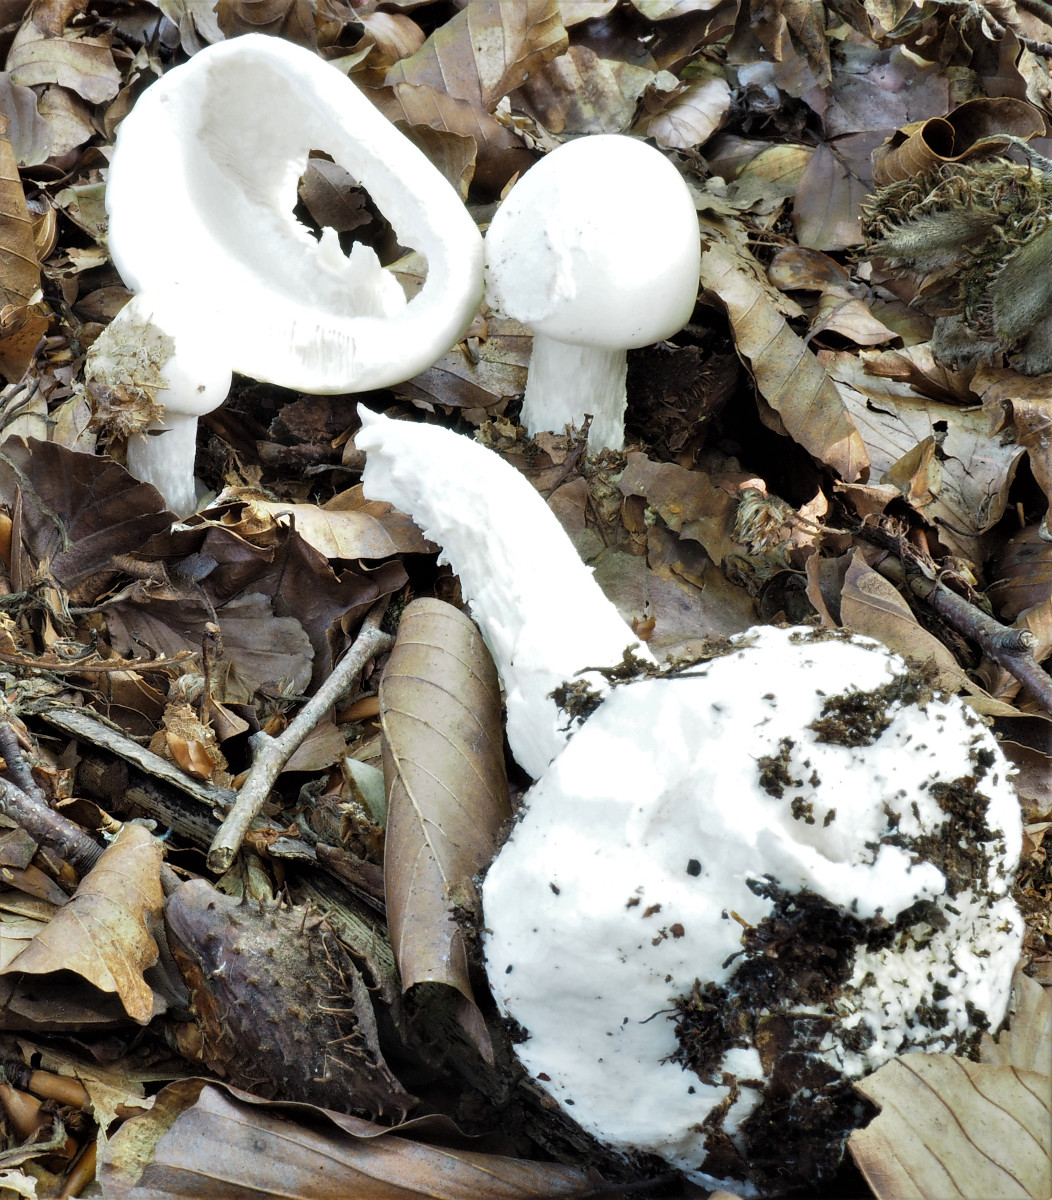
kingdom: Fungi
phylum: Basidiomycota
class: Agaricomycetes
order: Agaricales
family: Amanitaceae
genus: Amanita
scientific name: Amanita virosa
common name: snehvid fluesvamp
